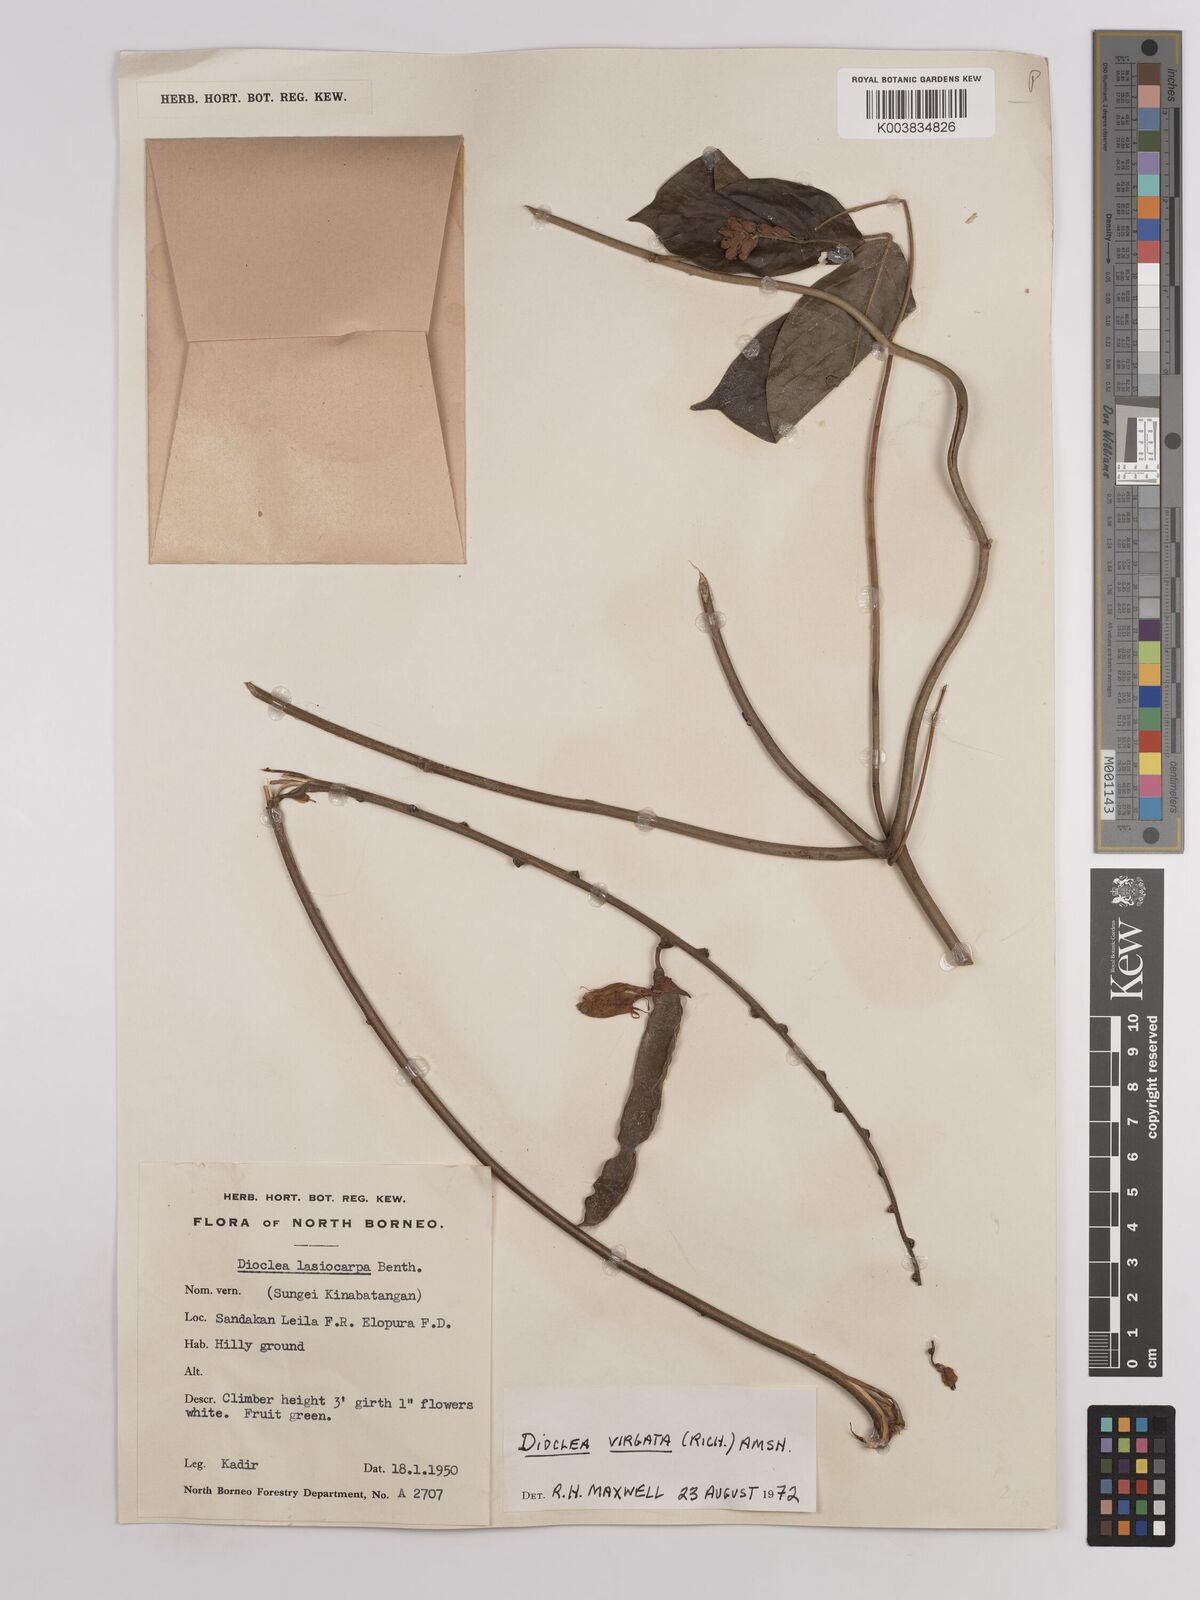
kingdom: Plantae
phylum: Tracheophyta
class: Magnoliopsida
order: Fabales
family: Fabaceae
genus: Dioclea
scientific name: Dioclea virgata
